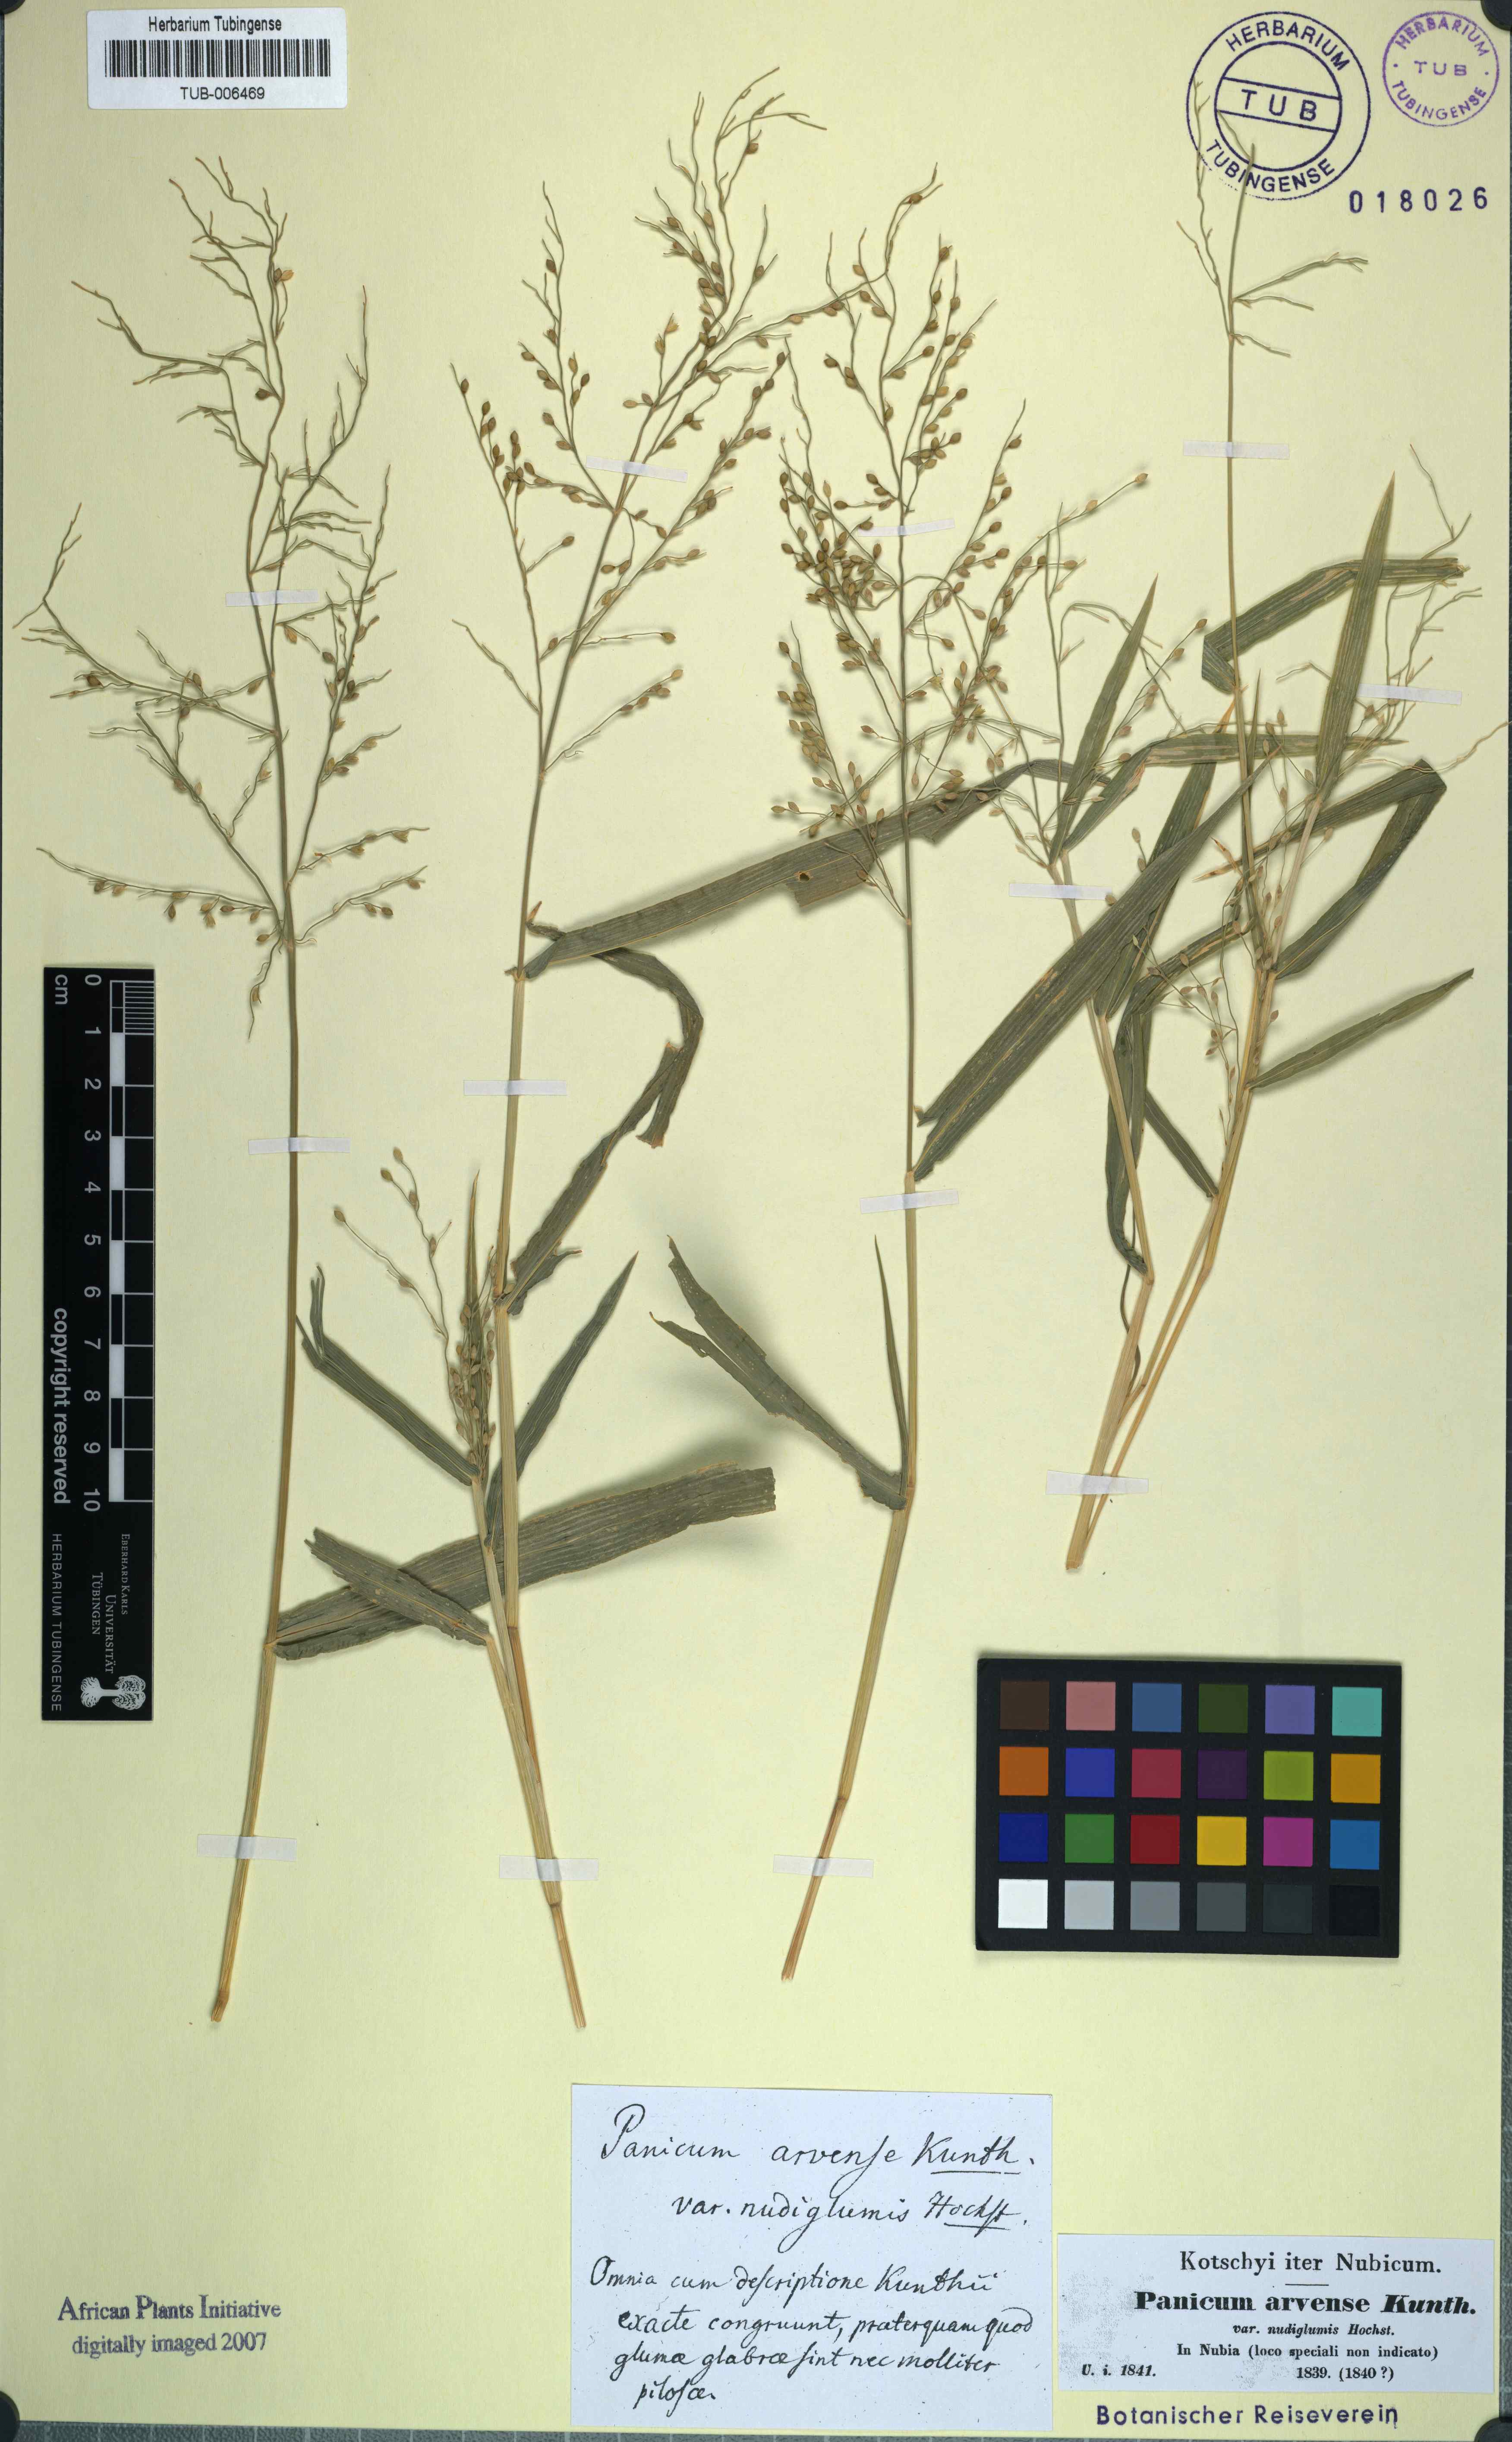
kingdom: Plantae
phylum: Tracheophyta
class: Liliopsida
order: Poales
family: Poaceae
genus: Urochloa
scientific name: Urochloa ramosa
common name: Browntop millet
